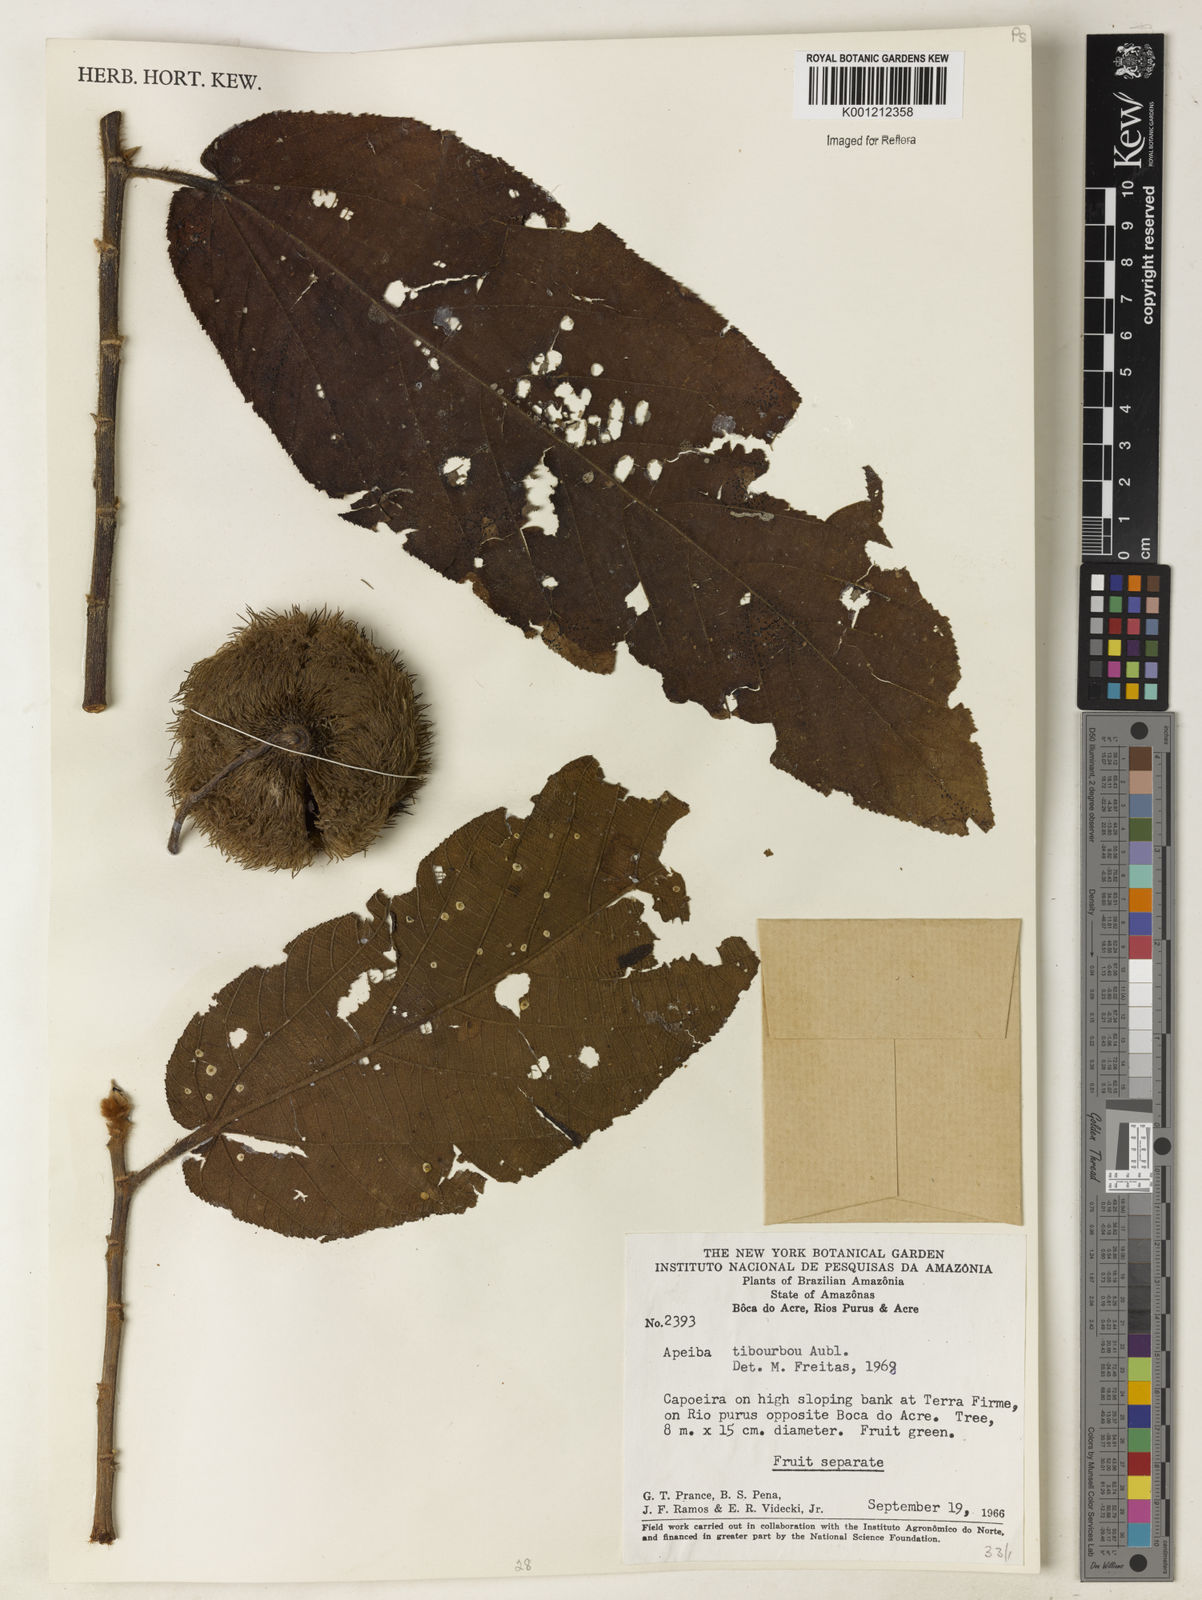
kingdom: Plantae
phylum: Tracheophyta
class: Magnoliopsida
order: Malvales
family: Malvaceae
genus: Apeiba
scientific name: Apeiba tibourbou
